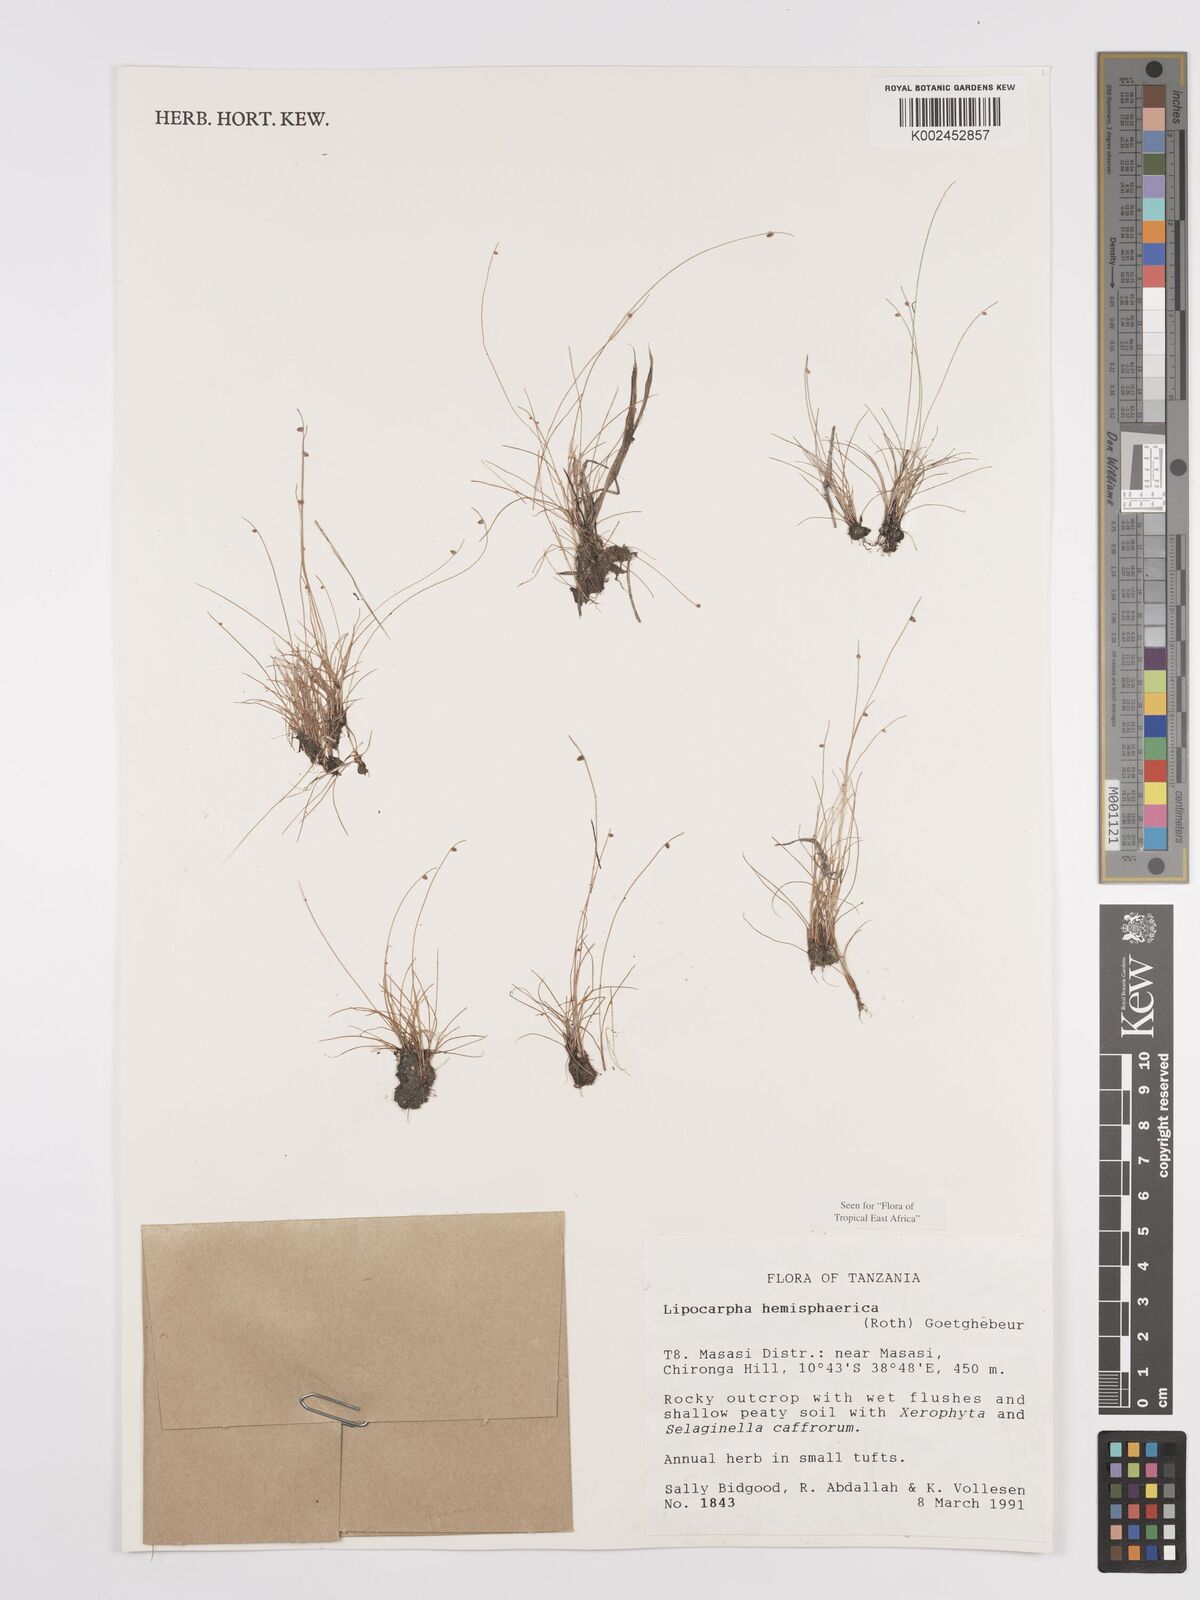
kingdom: Plantae
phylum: Tracheophyta
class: Liliopsida
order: Poales
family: Cyperaceae
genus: Cyperus
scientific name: Cyperus hemisphaericus
